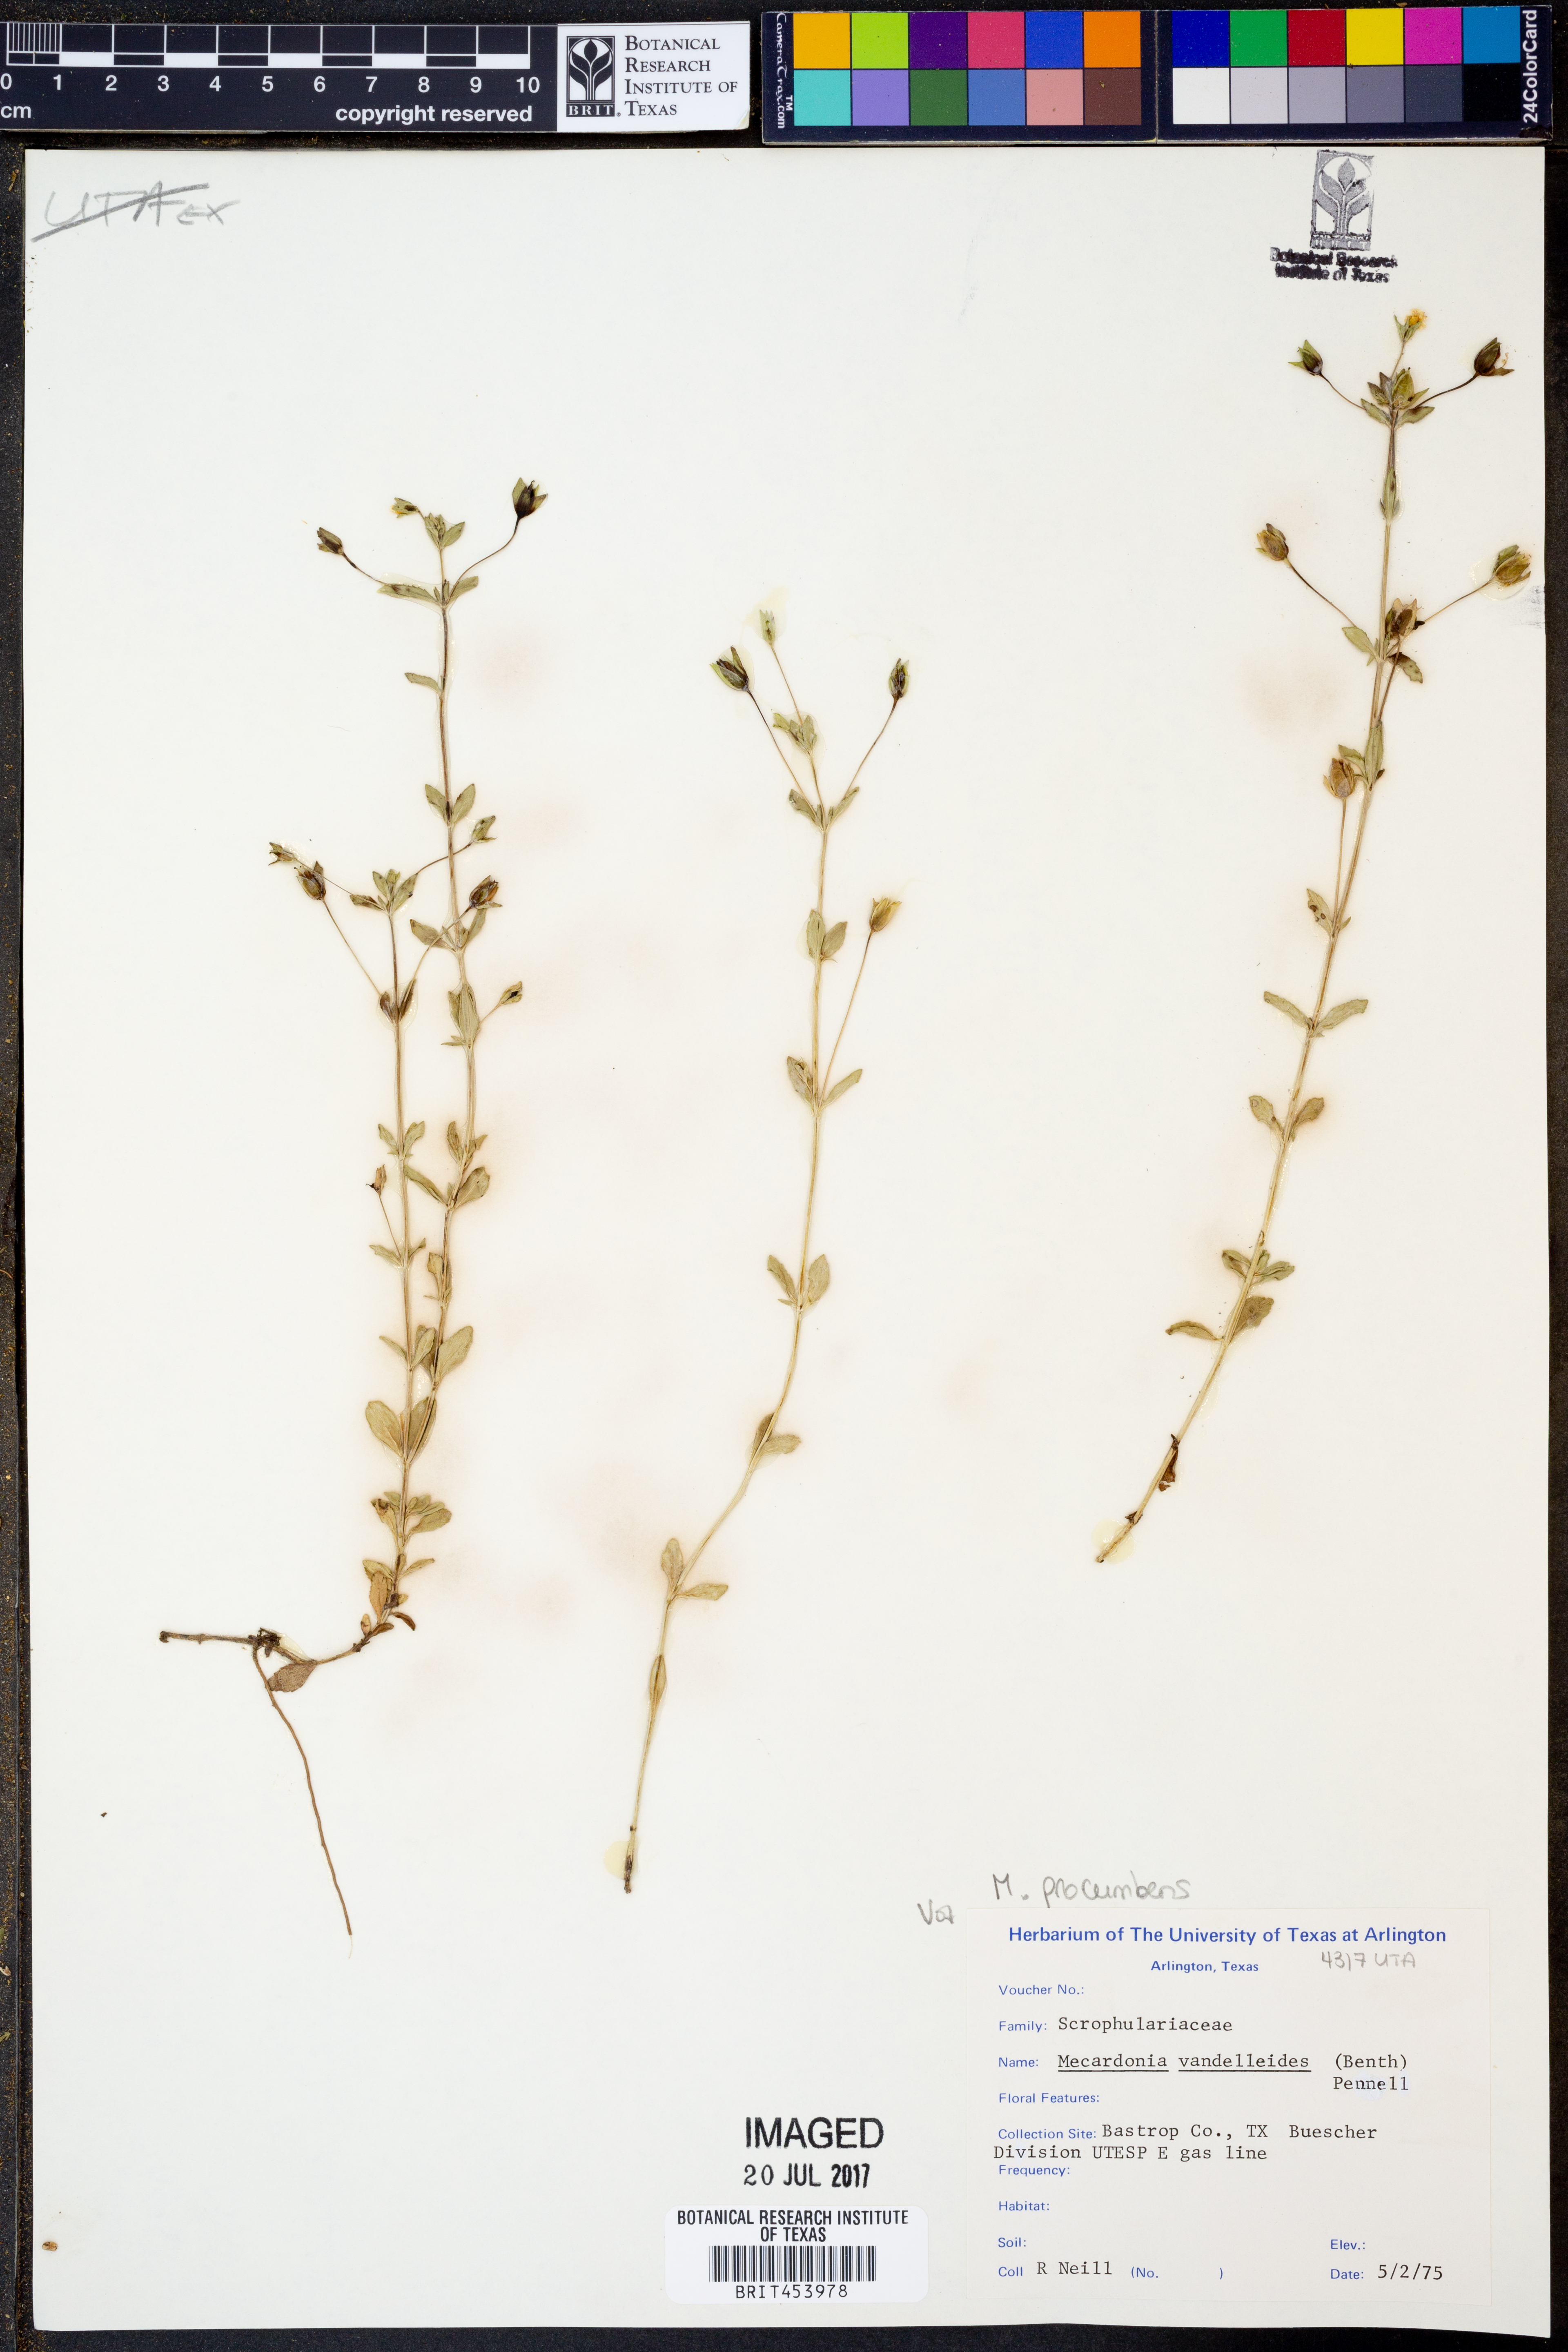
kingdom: Plantae
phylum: Tracheophyta
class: Magnoliopsida
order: Lamiales
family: Plantaginaceae
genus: Mecardonia
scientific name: Mecardonia procumbens
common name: Baby jump-up
